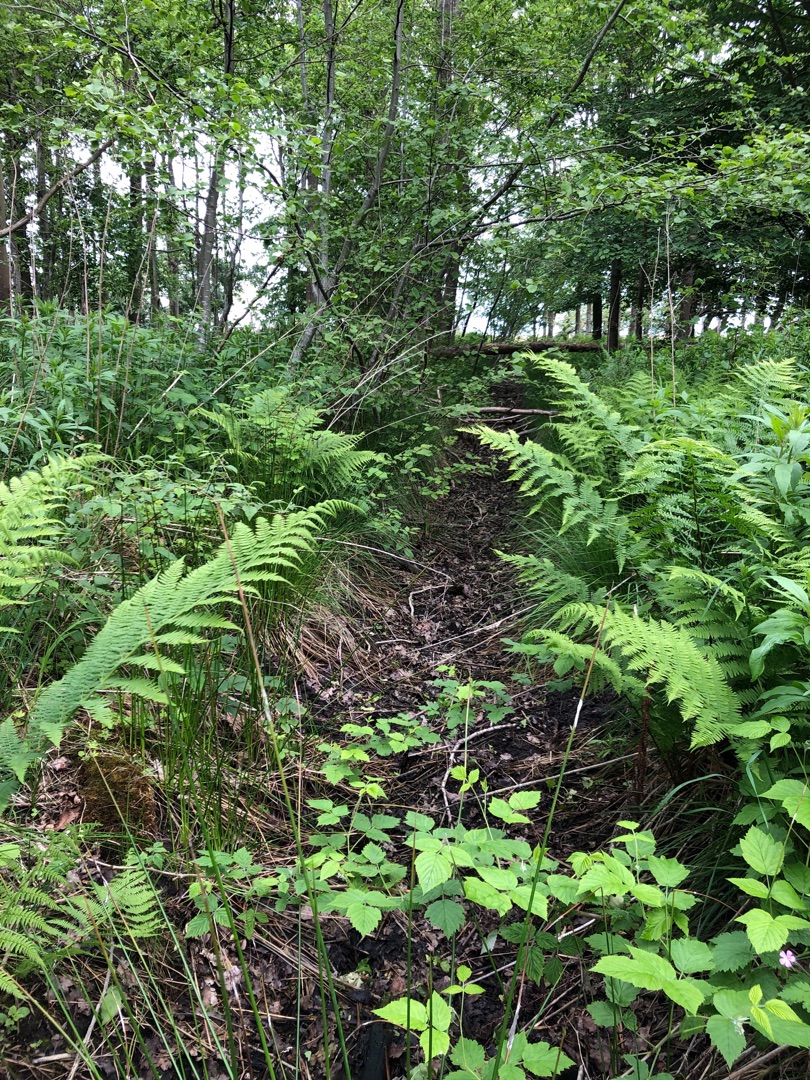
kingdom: Plantae
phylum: Tracheophyta
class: Polypodiopsida
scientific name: Polypodiopsida
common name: Bregner & padderokker
